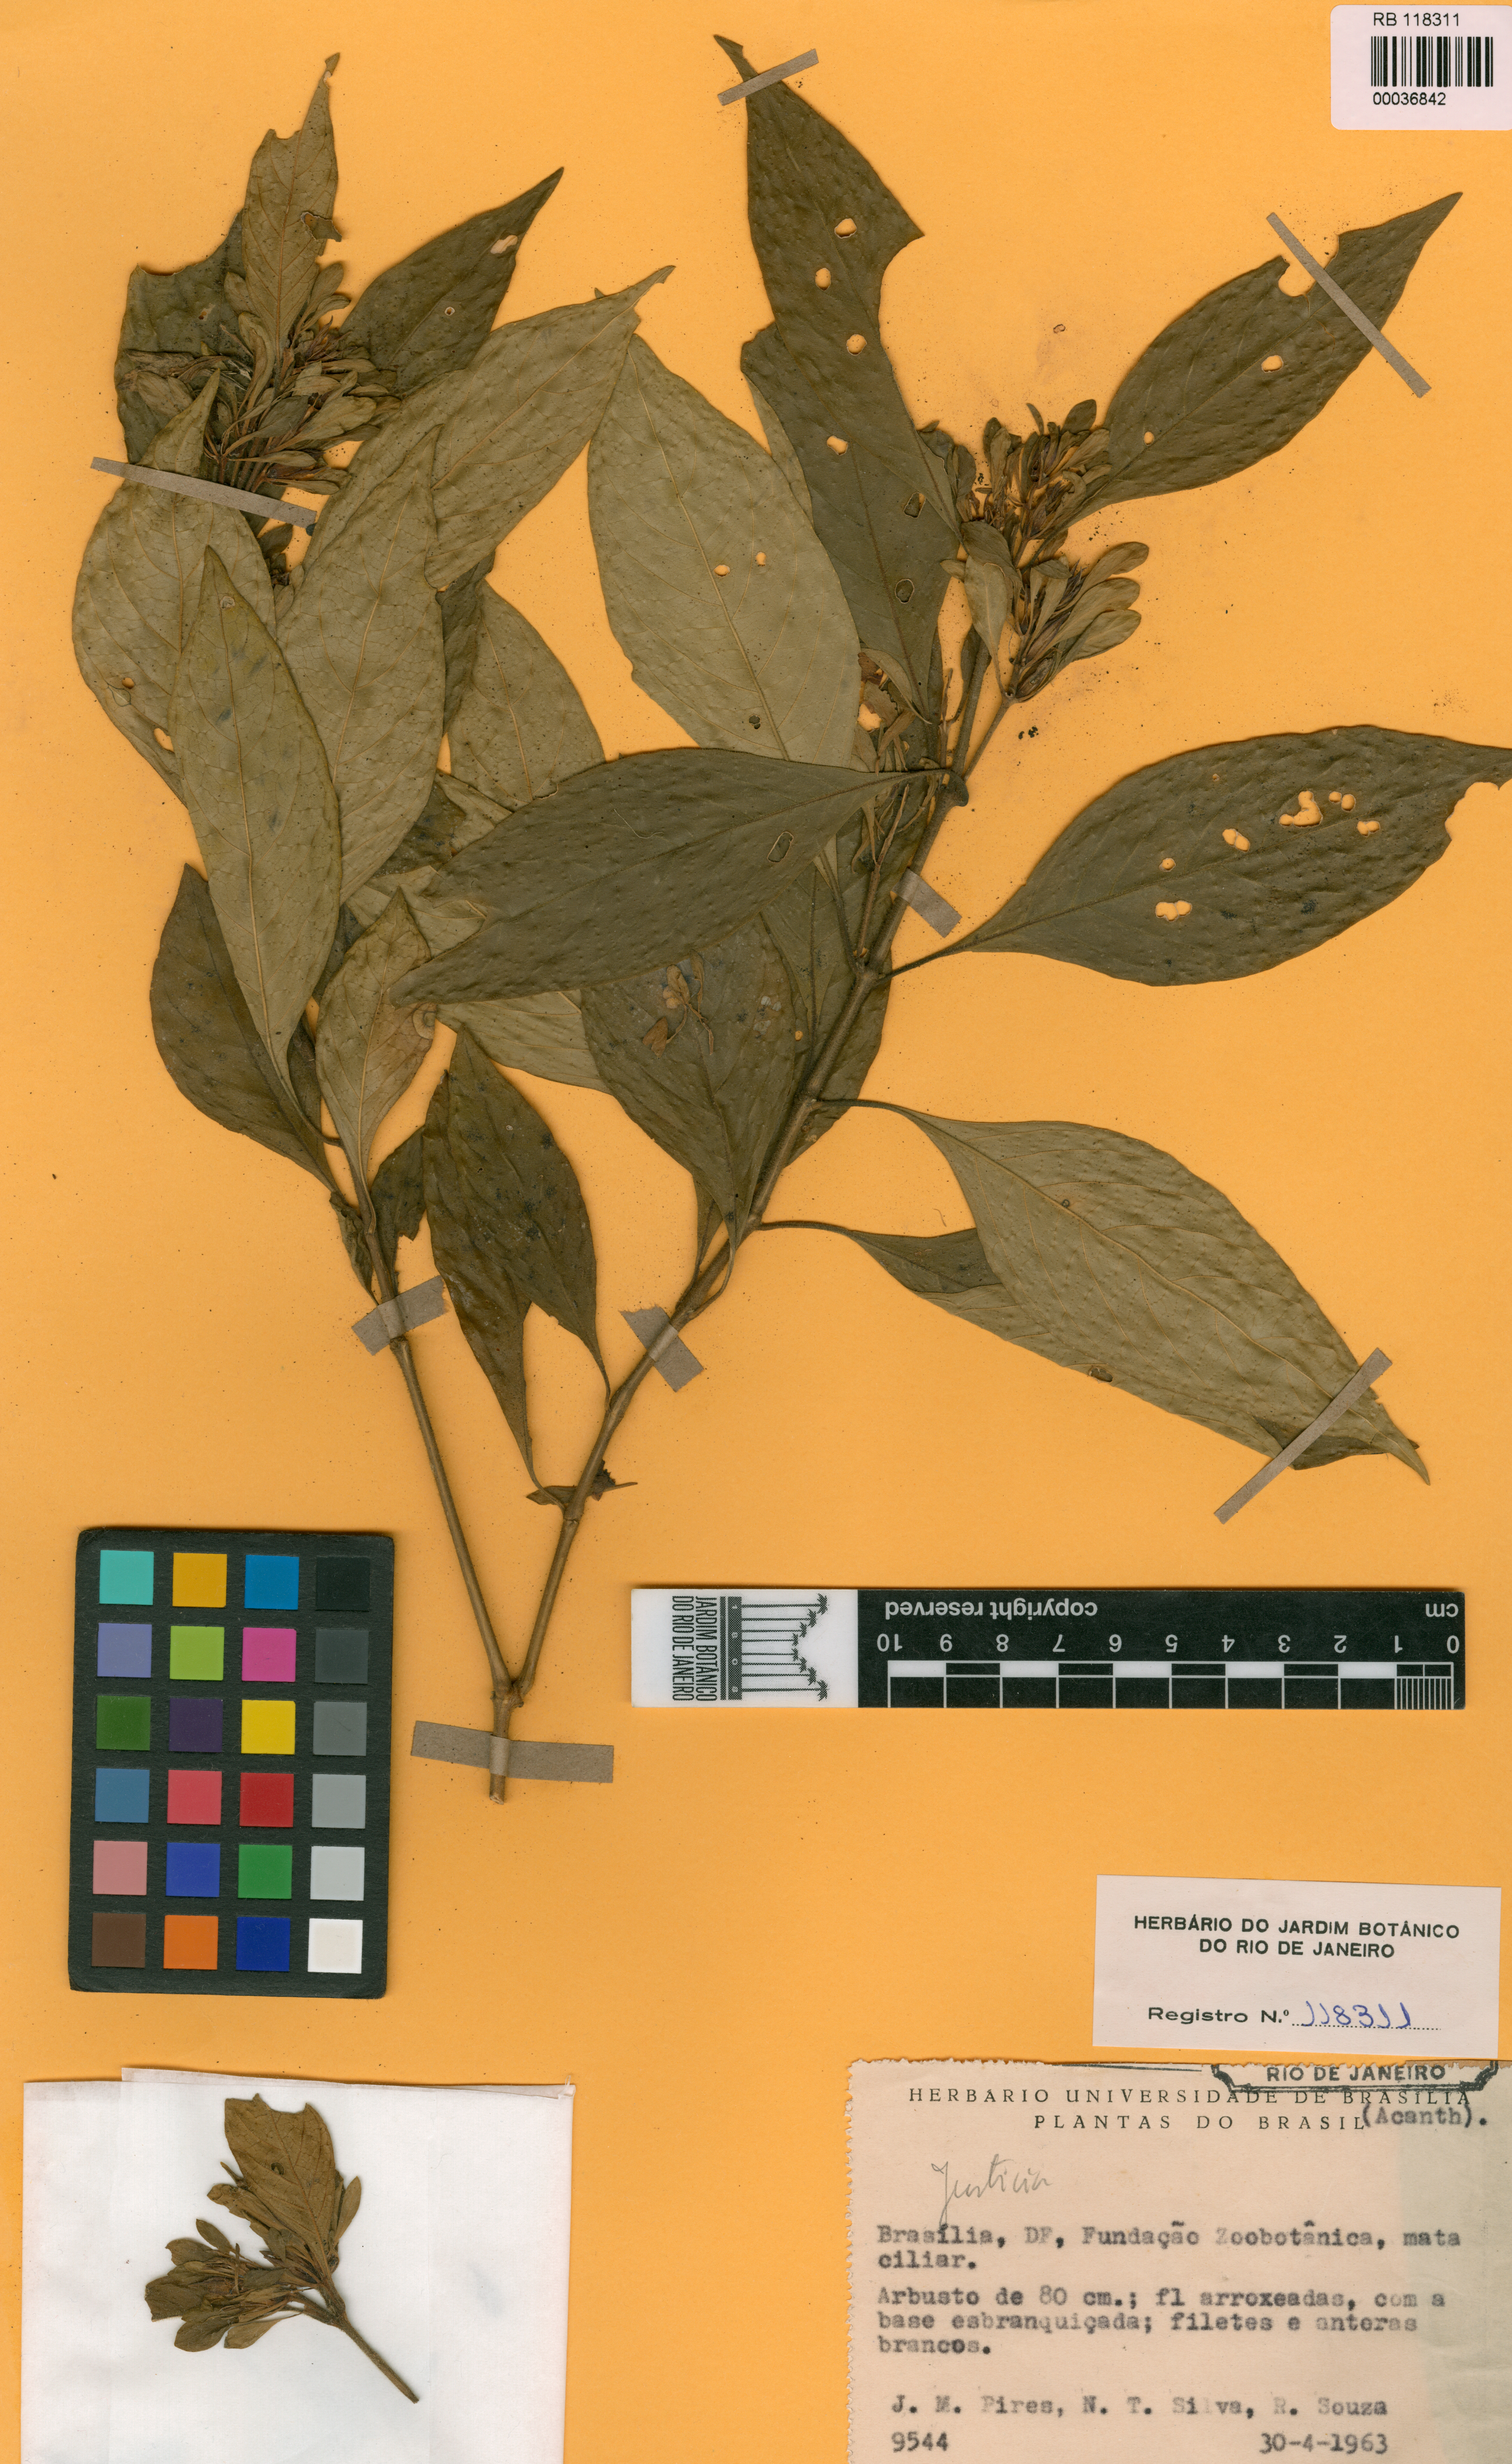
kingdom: Plantae
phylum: Tracheophyta
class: Magnoliopsida
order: Lamiales
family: Acanthaceae
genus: Justicia
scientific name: Justicia irwinii
